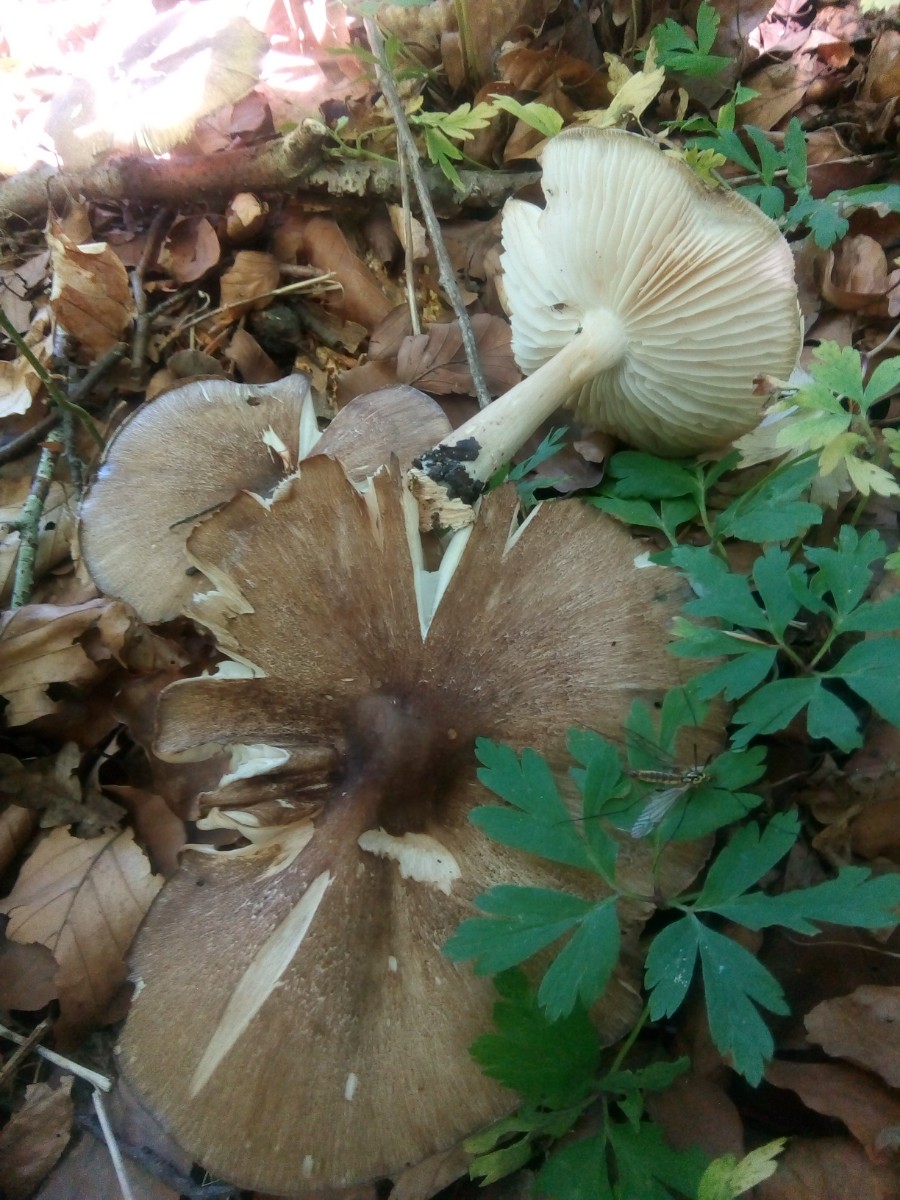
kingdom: Fungi
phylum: Basidiomycota
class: Agaricomycetes
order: Agaricales
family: Tricholomataceae
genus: Megacollybia
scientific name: Megacollybia platyphylla
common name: bredbladet væbnerhat
